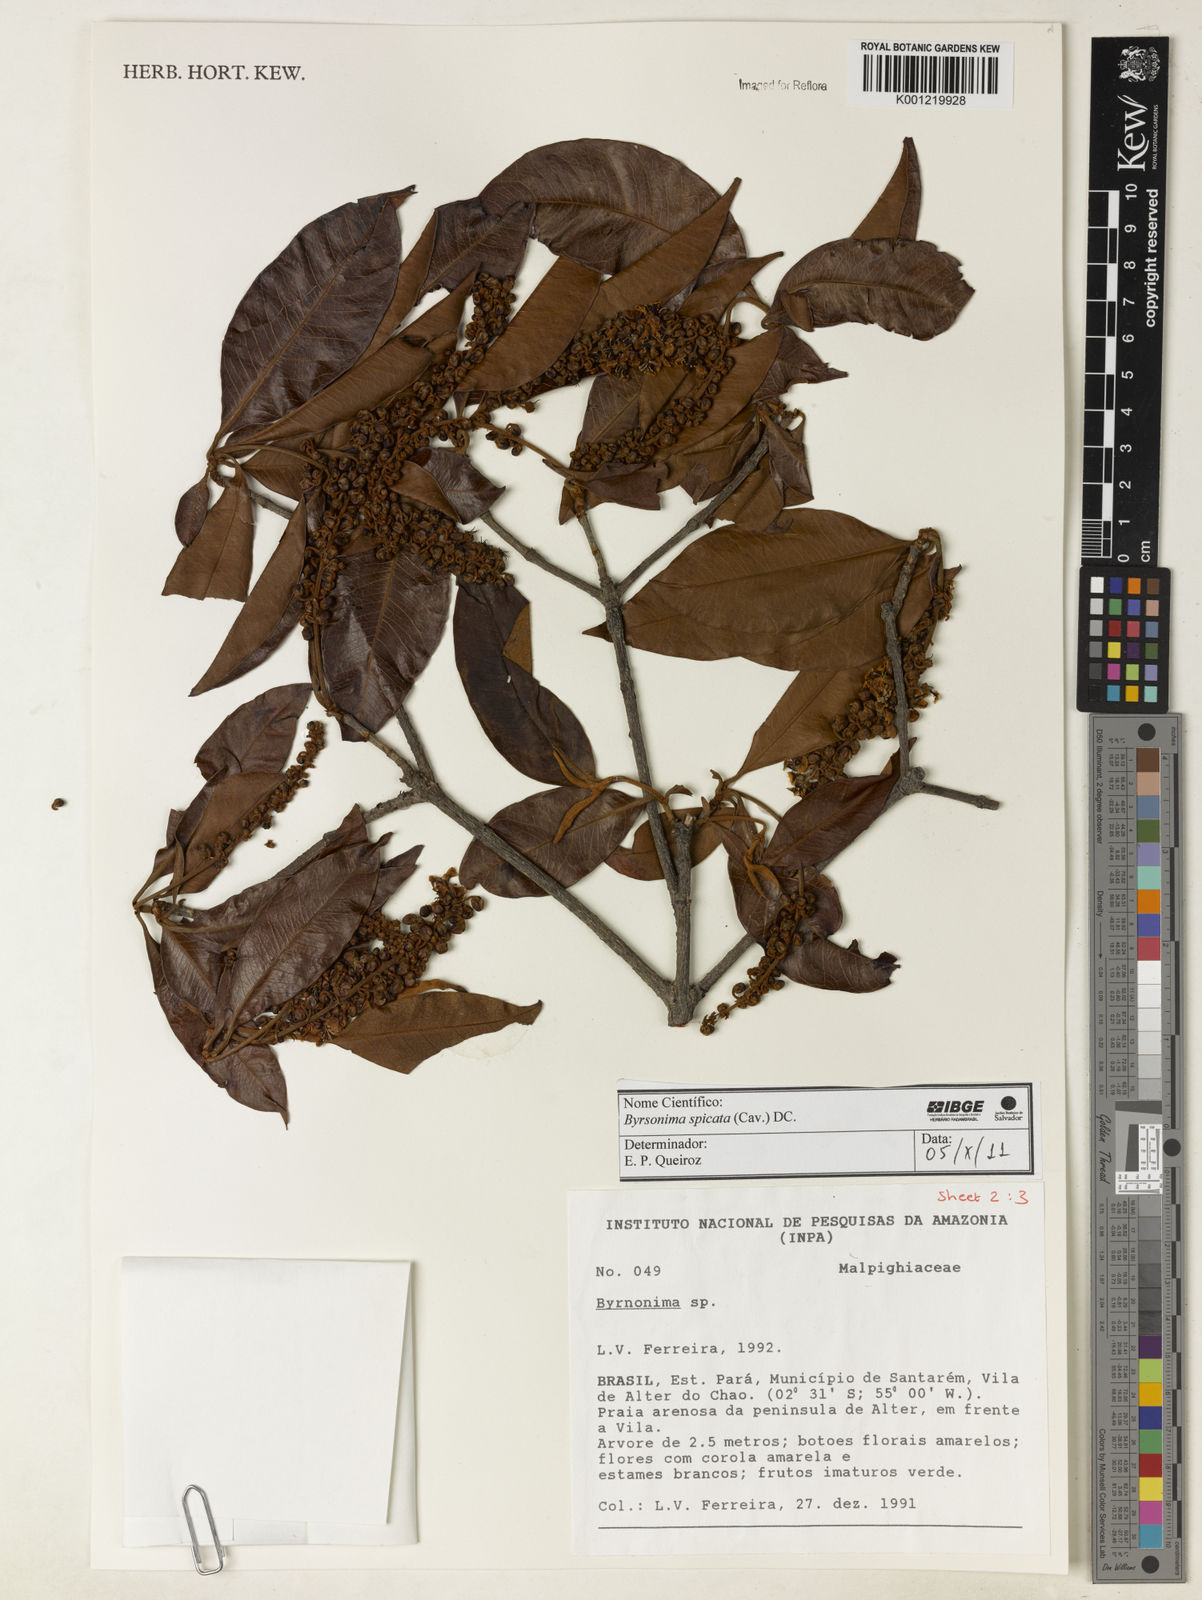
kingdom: Plantae
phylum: Tracheophyta
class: Magnoliopsida
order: Malpighiales
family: Malpighiaceae
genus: Byrsonima
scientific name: Byrsonima
